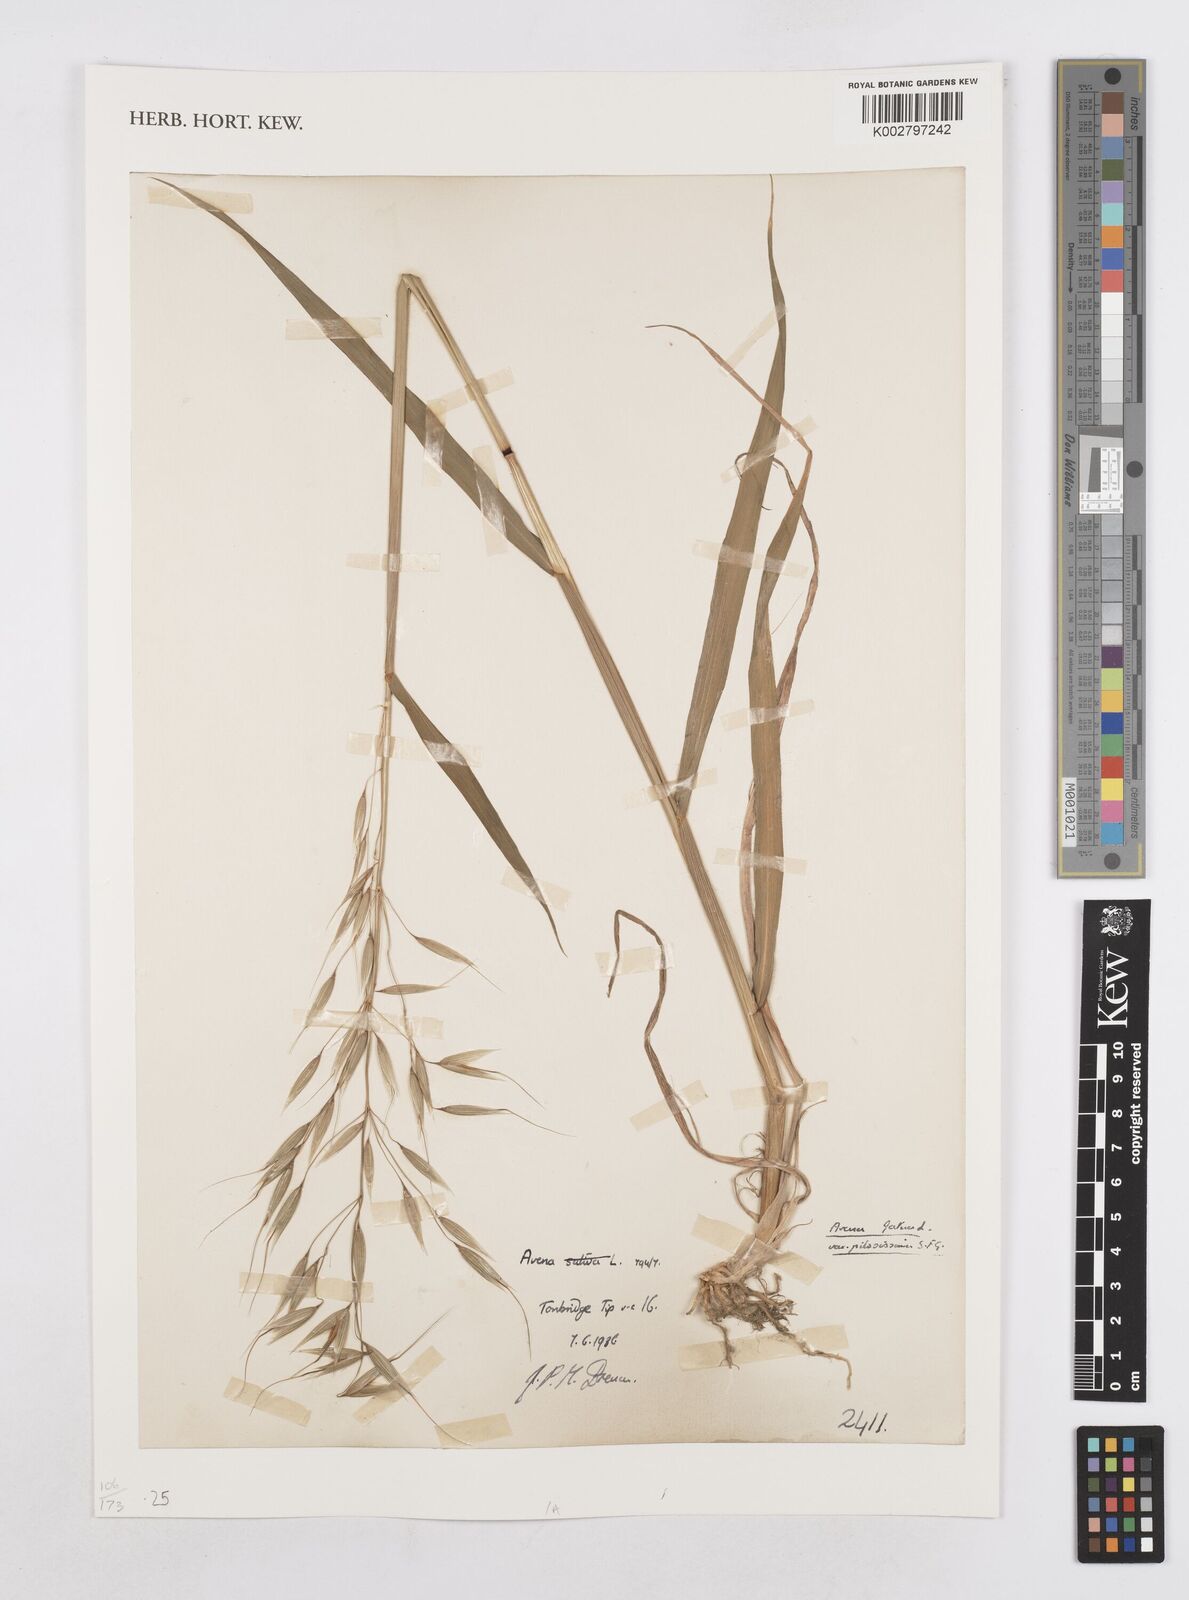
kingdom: Plantae
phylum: Tracheophyta
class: Liliopsida
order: Poales
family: Poaceae
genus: Avena
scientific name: Avena fatua
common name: Wild oat
